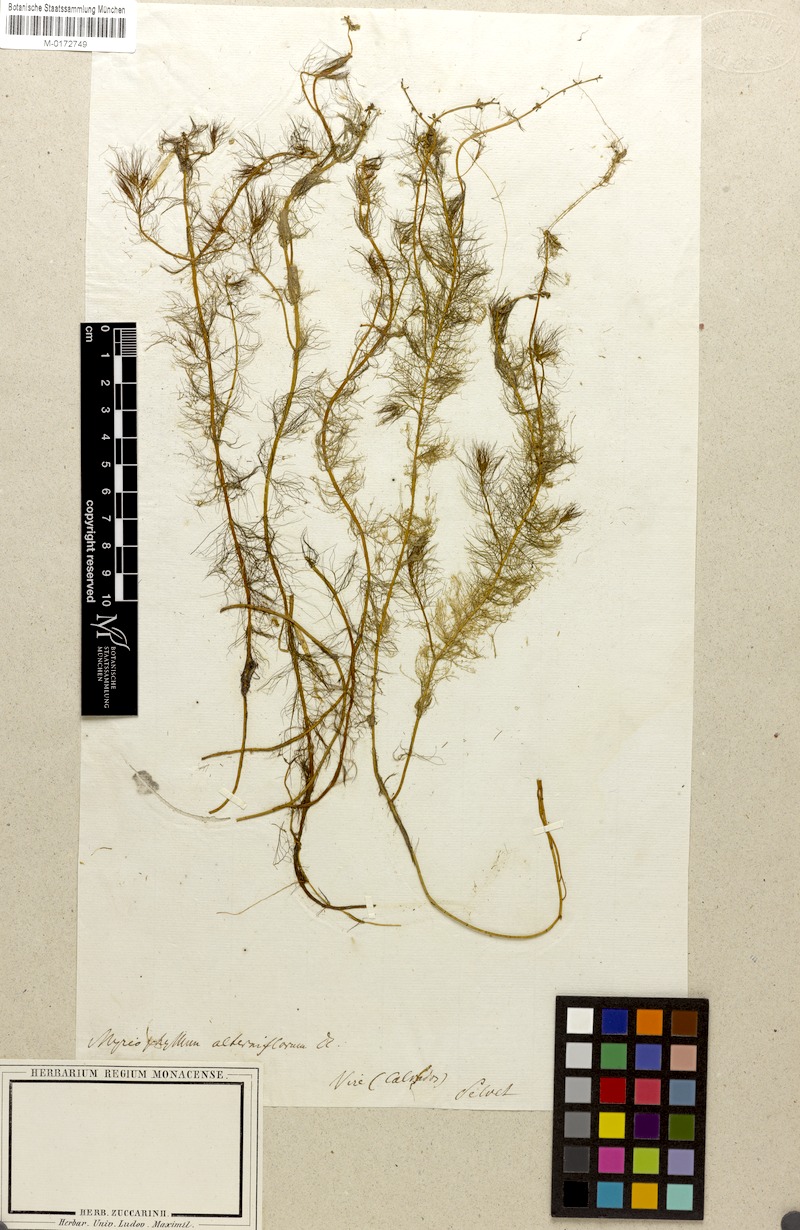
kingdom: Plantae
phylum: Tracheophyta
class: Magnoliopsida
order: Saxifragales
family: Haloragaceae
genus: Myriophyllum
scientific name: Myriophyllum alterniflorum
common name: Alternate water-milfoil
